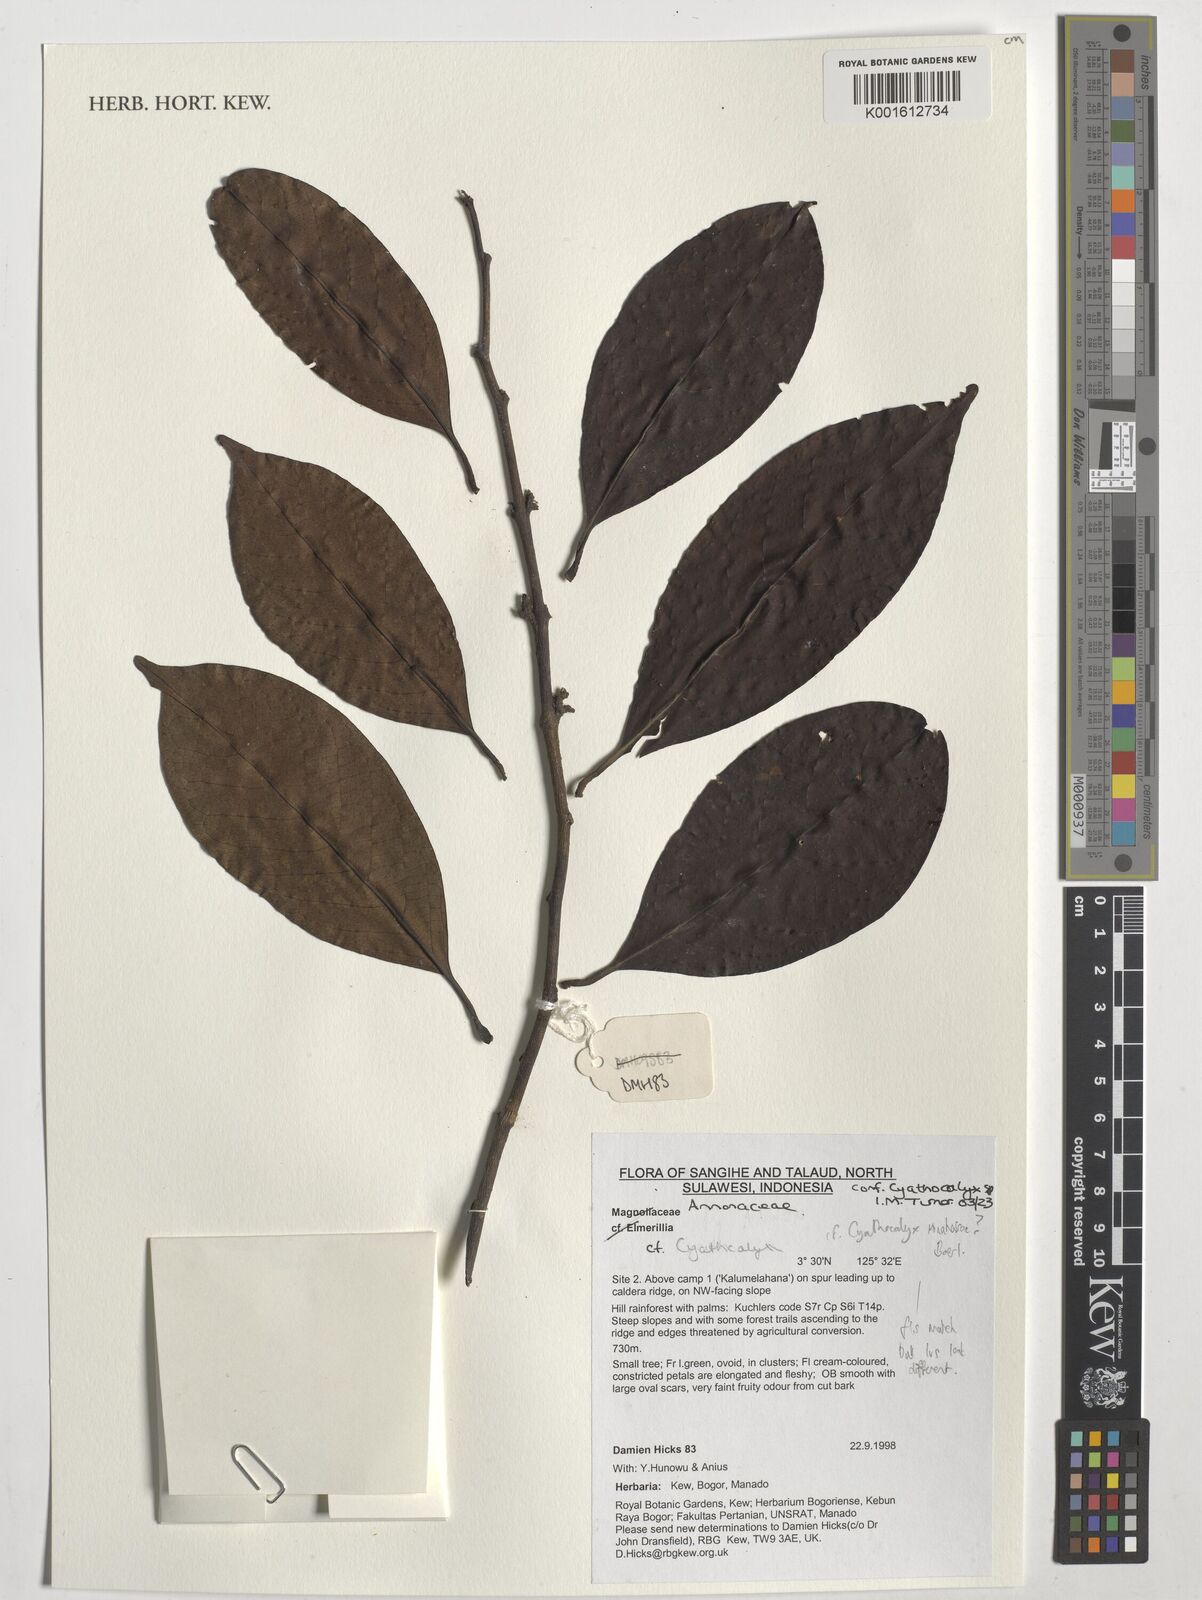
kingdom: Plantae
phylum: Tracheophyta
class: Magnoliopsida
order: Magnoliales
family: Annonaceae
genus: Cyathocalyx
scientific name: Cyathocalyx
